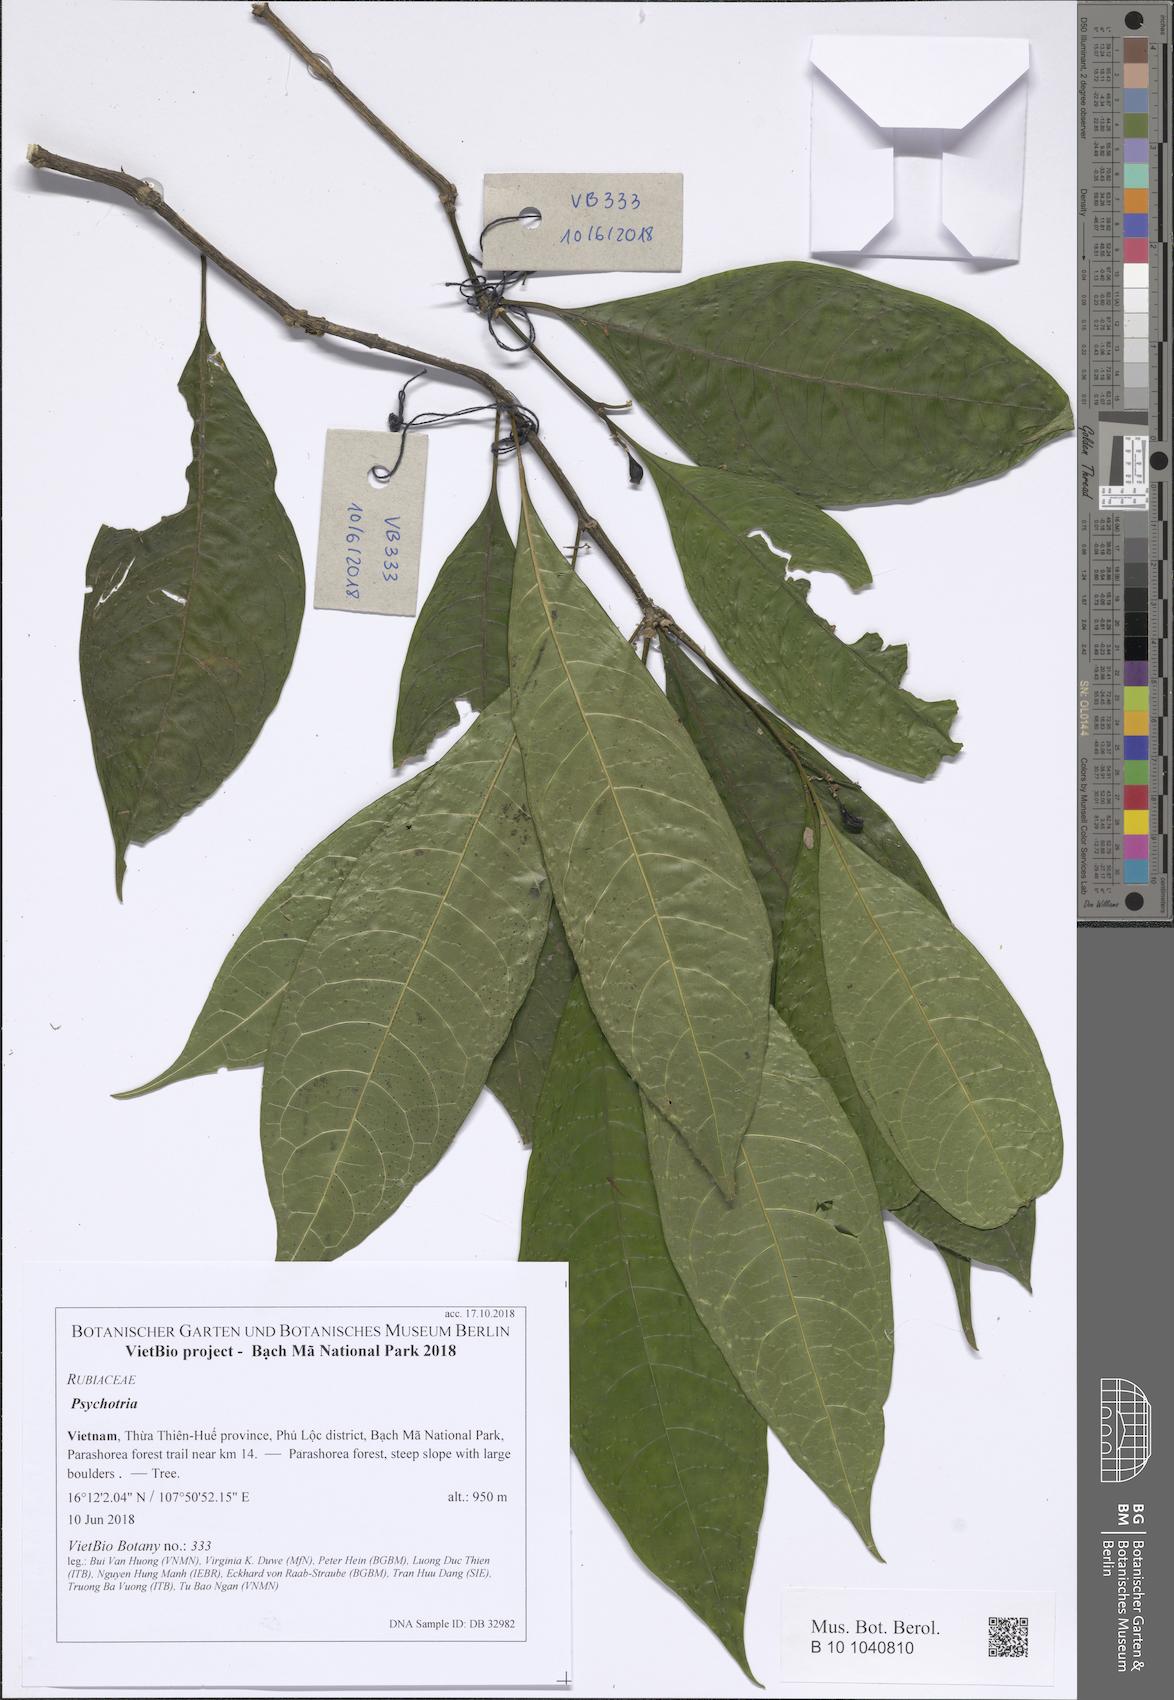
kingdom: Plantae
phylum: Tracheophyta
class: Magnoliopsida
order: Gentianales
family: Rubiaceae
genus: Psychotria
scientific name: Psychotria yunnanensis
